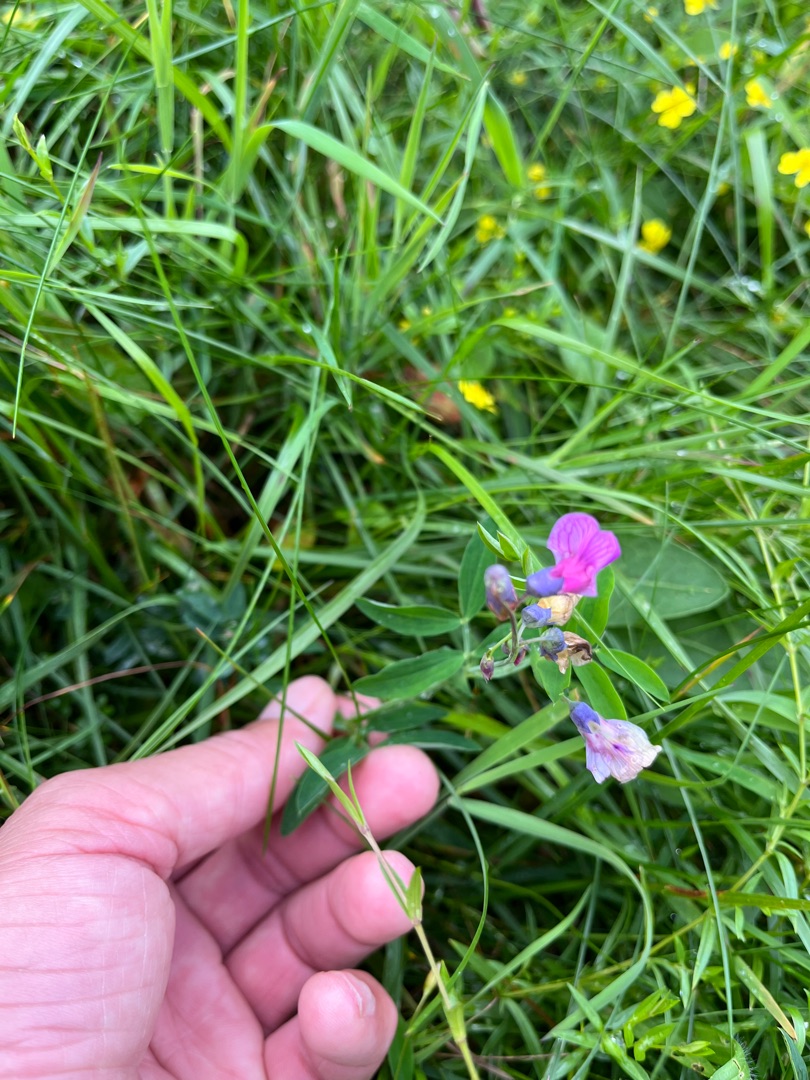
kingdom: Plantae
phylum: Tracheophyta
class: Magnoliopsida
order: Fabales
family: Fabaceae
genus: Lathyrus
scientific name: Lathyrus linifolius
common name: Krat-fladbælg
